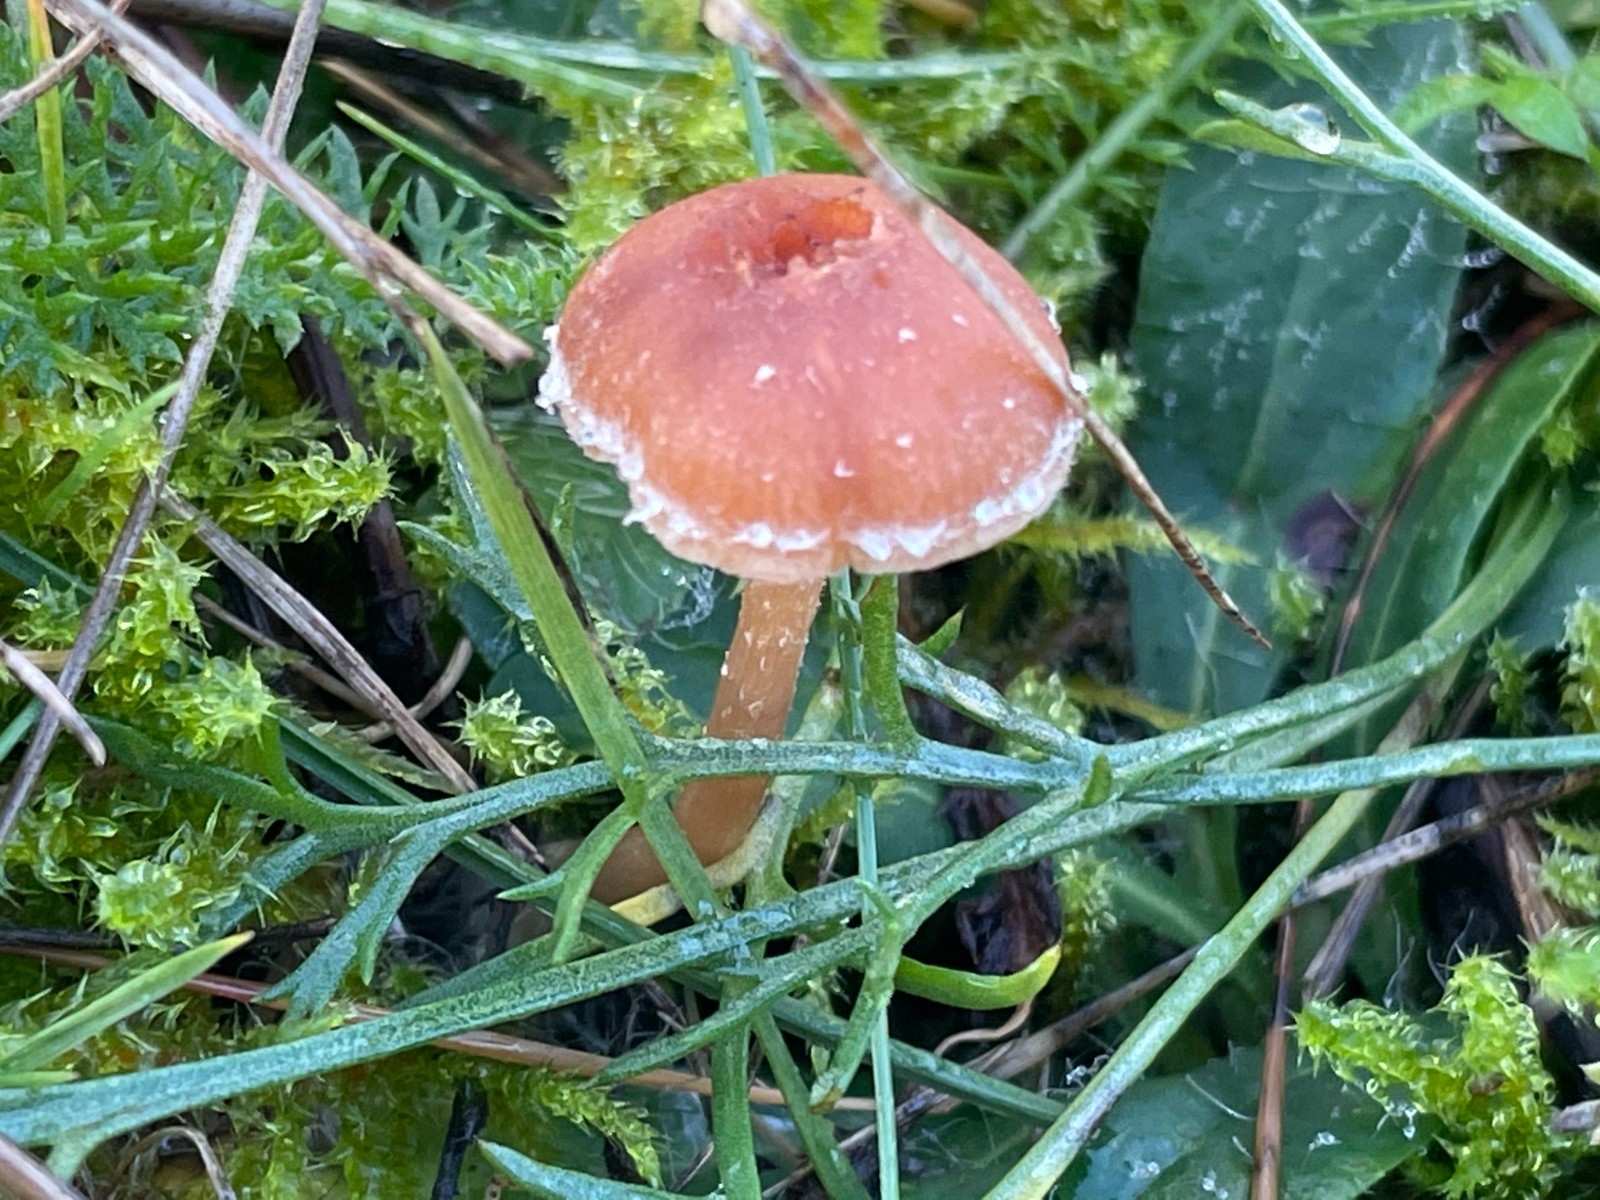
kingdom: Fungi
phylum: Basidiomycota
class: Agaricomycetes
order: Agaricales
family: Tubariaceae
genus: Tubaria
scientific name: Tubaria furfuracea
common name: kliddet fnughat
